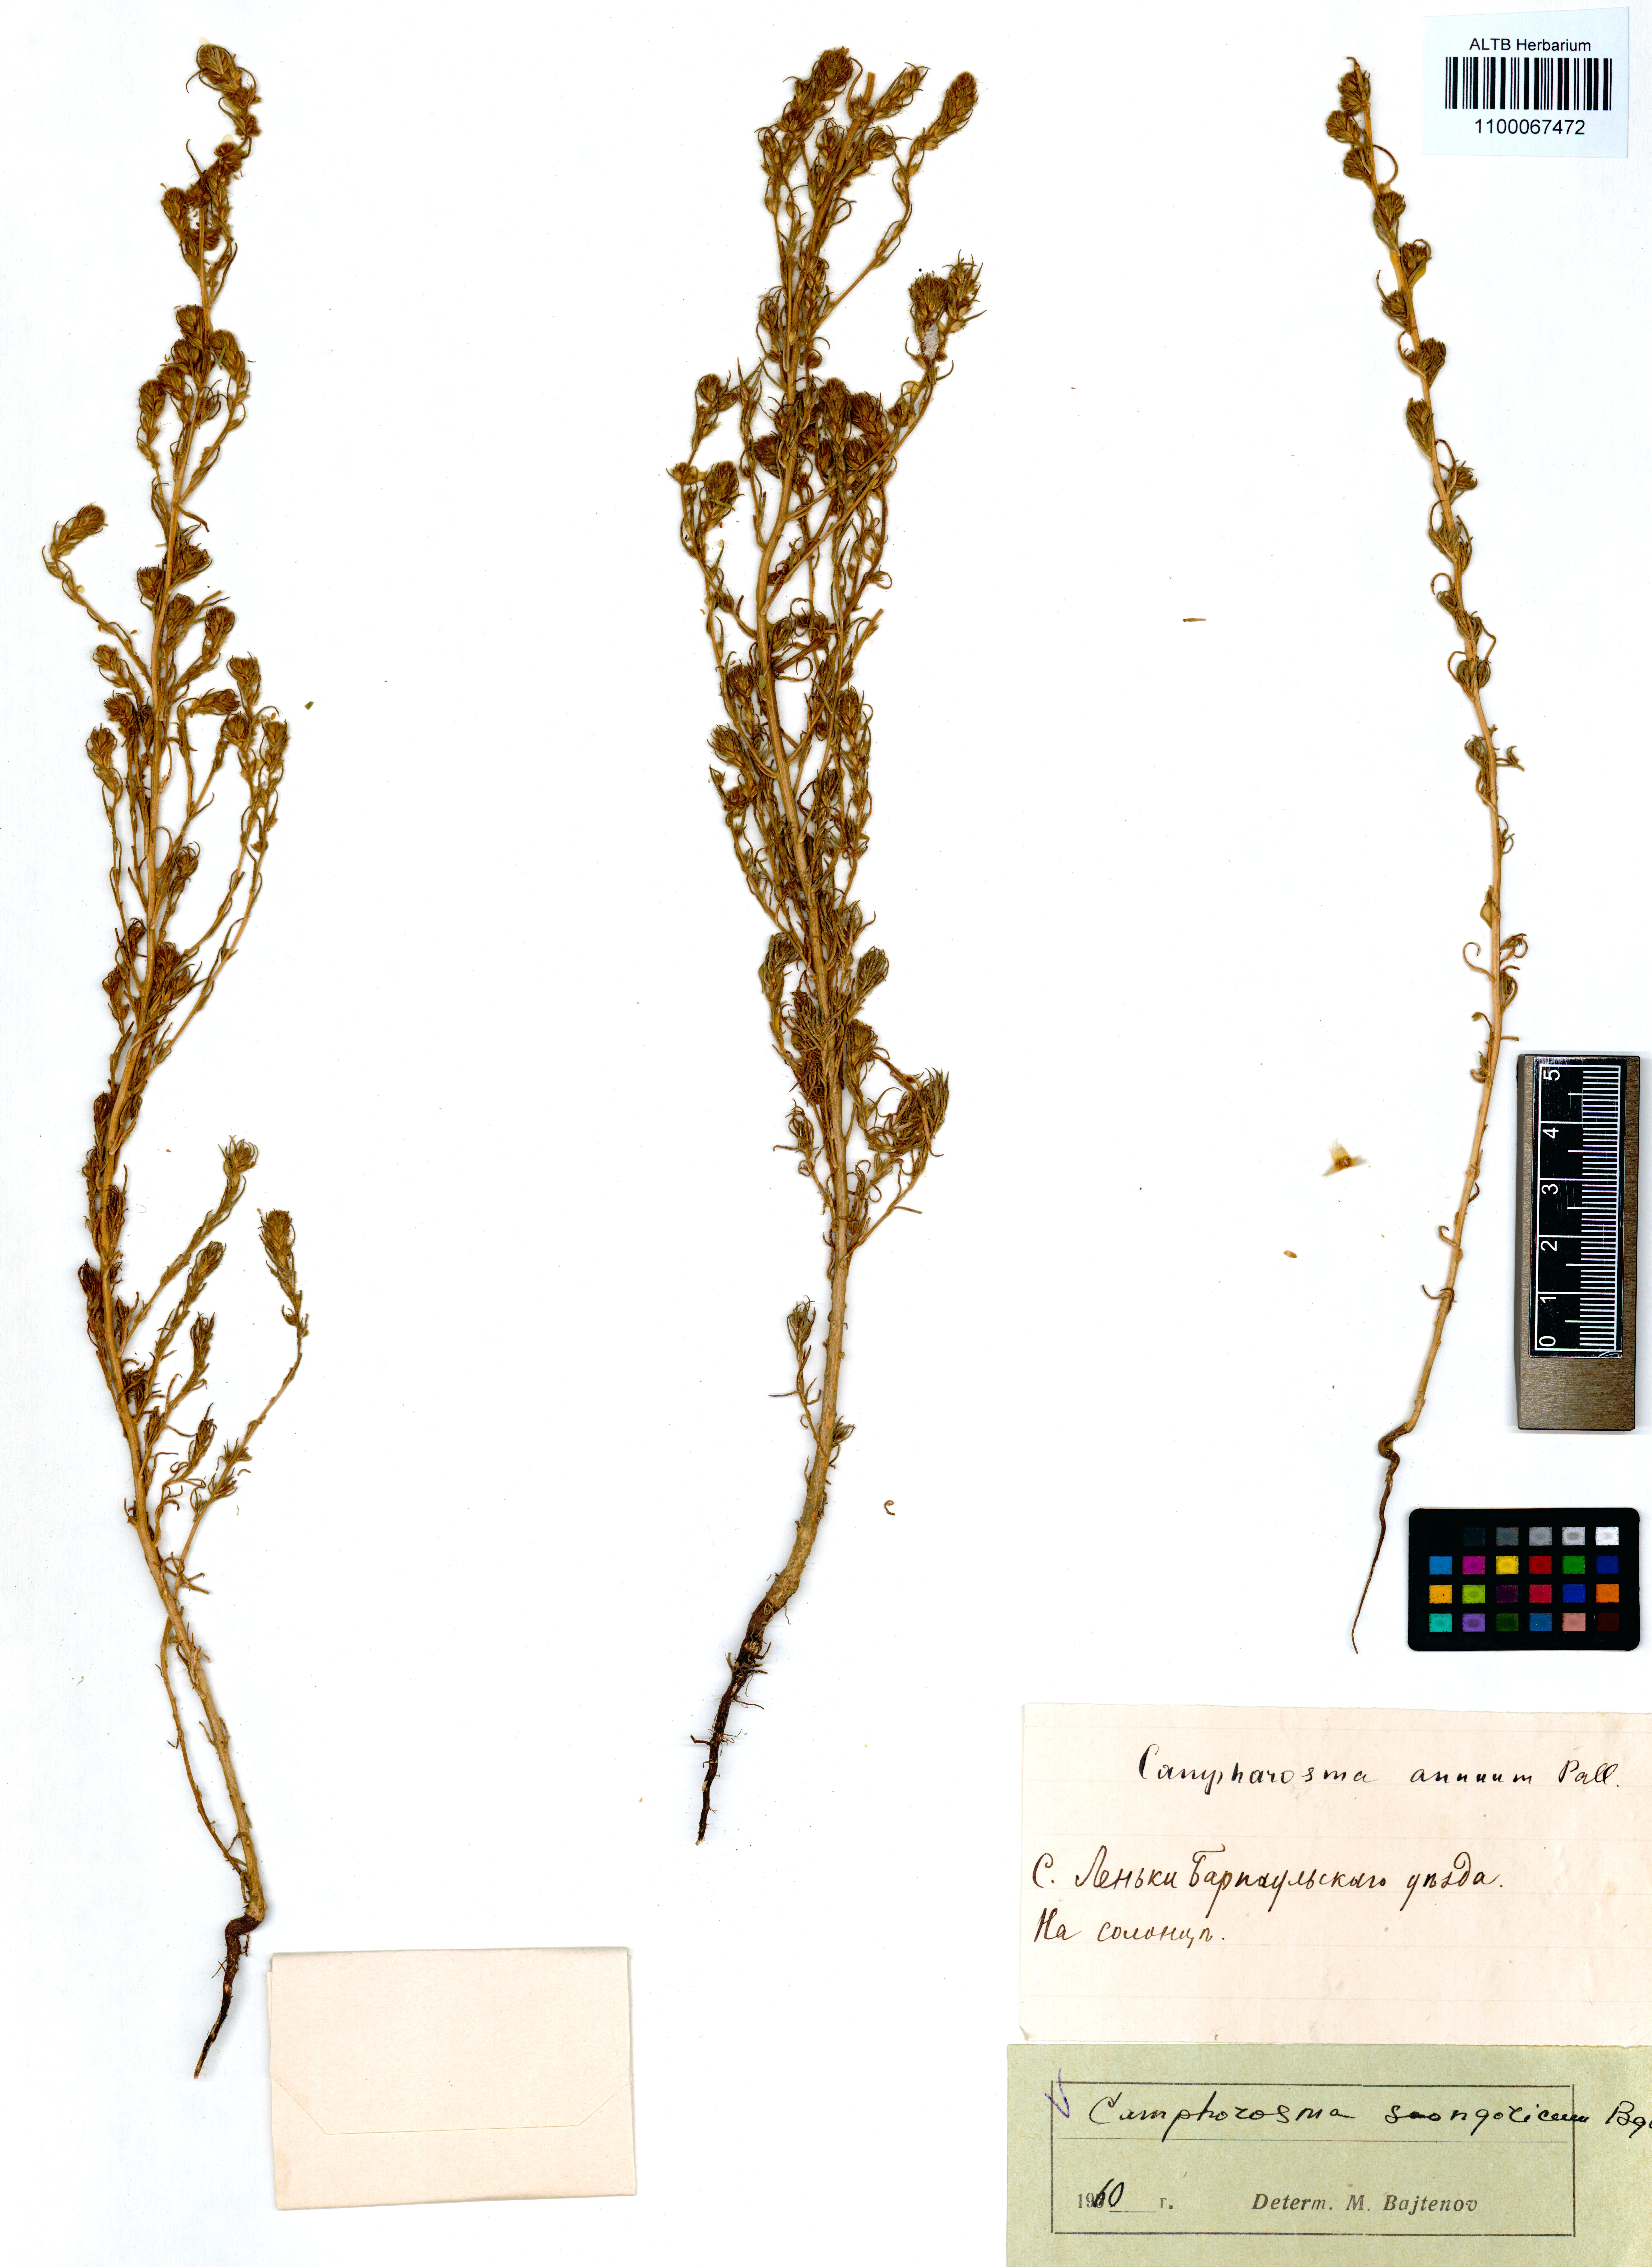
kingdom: Plantae
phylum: Tracheophyta
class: Magnoliopsida
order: Caryophyllales
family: Amaranthaceae
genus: Camphorosma
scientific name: Camphorosma songorica
